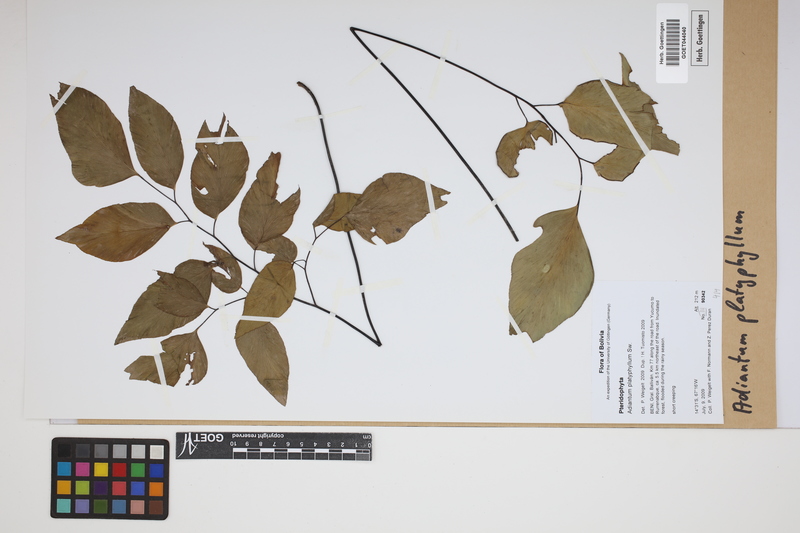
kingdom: Plantae
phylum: Tracheophyta
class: Polypodiopsida
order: Polypodiales
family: Pteridaceae
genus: Adiantum
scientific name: Adiantum platyphyllum
